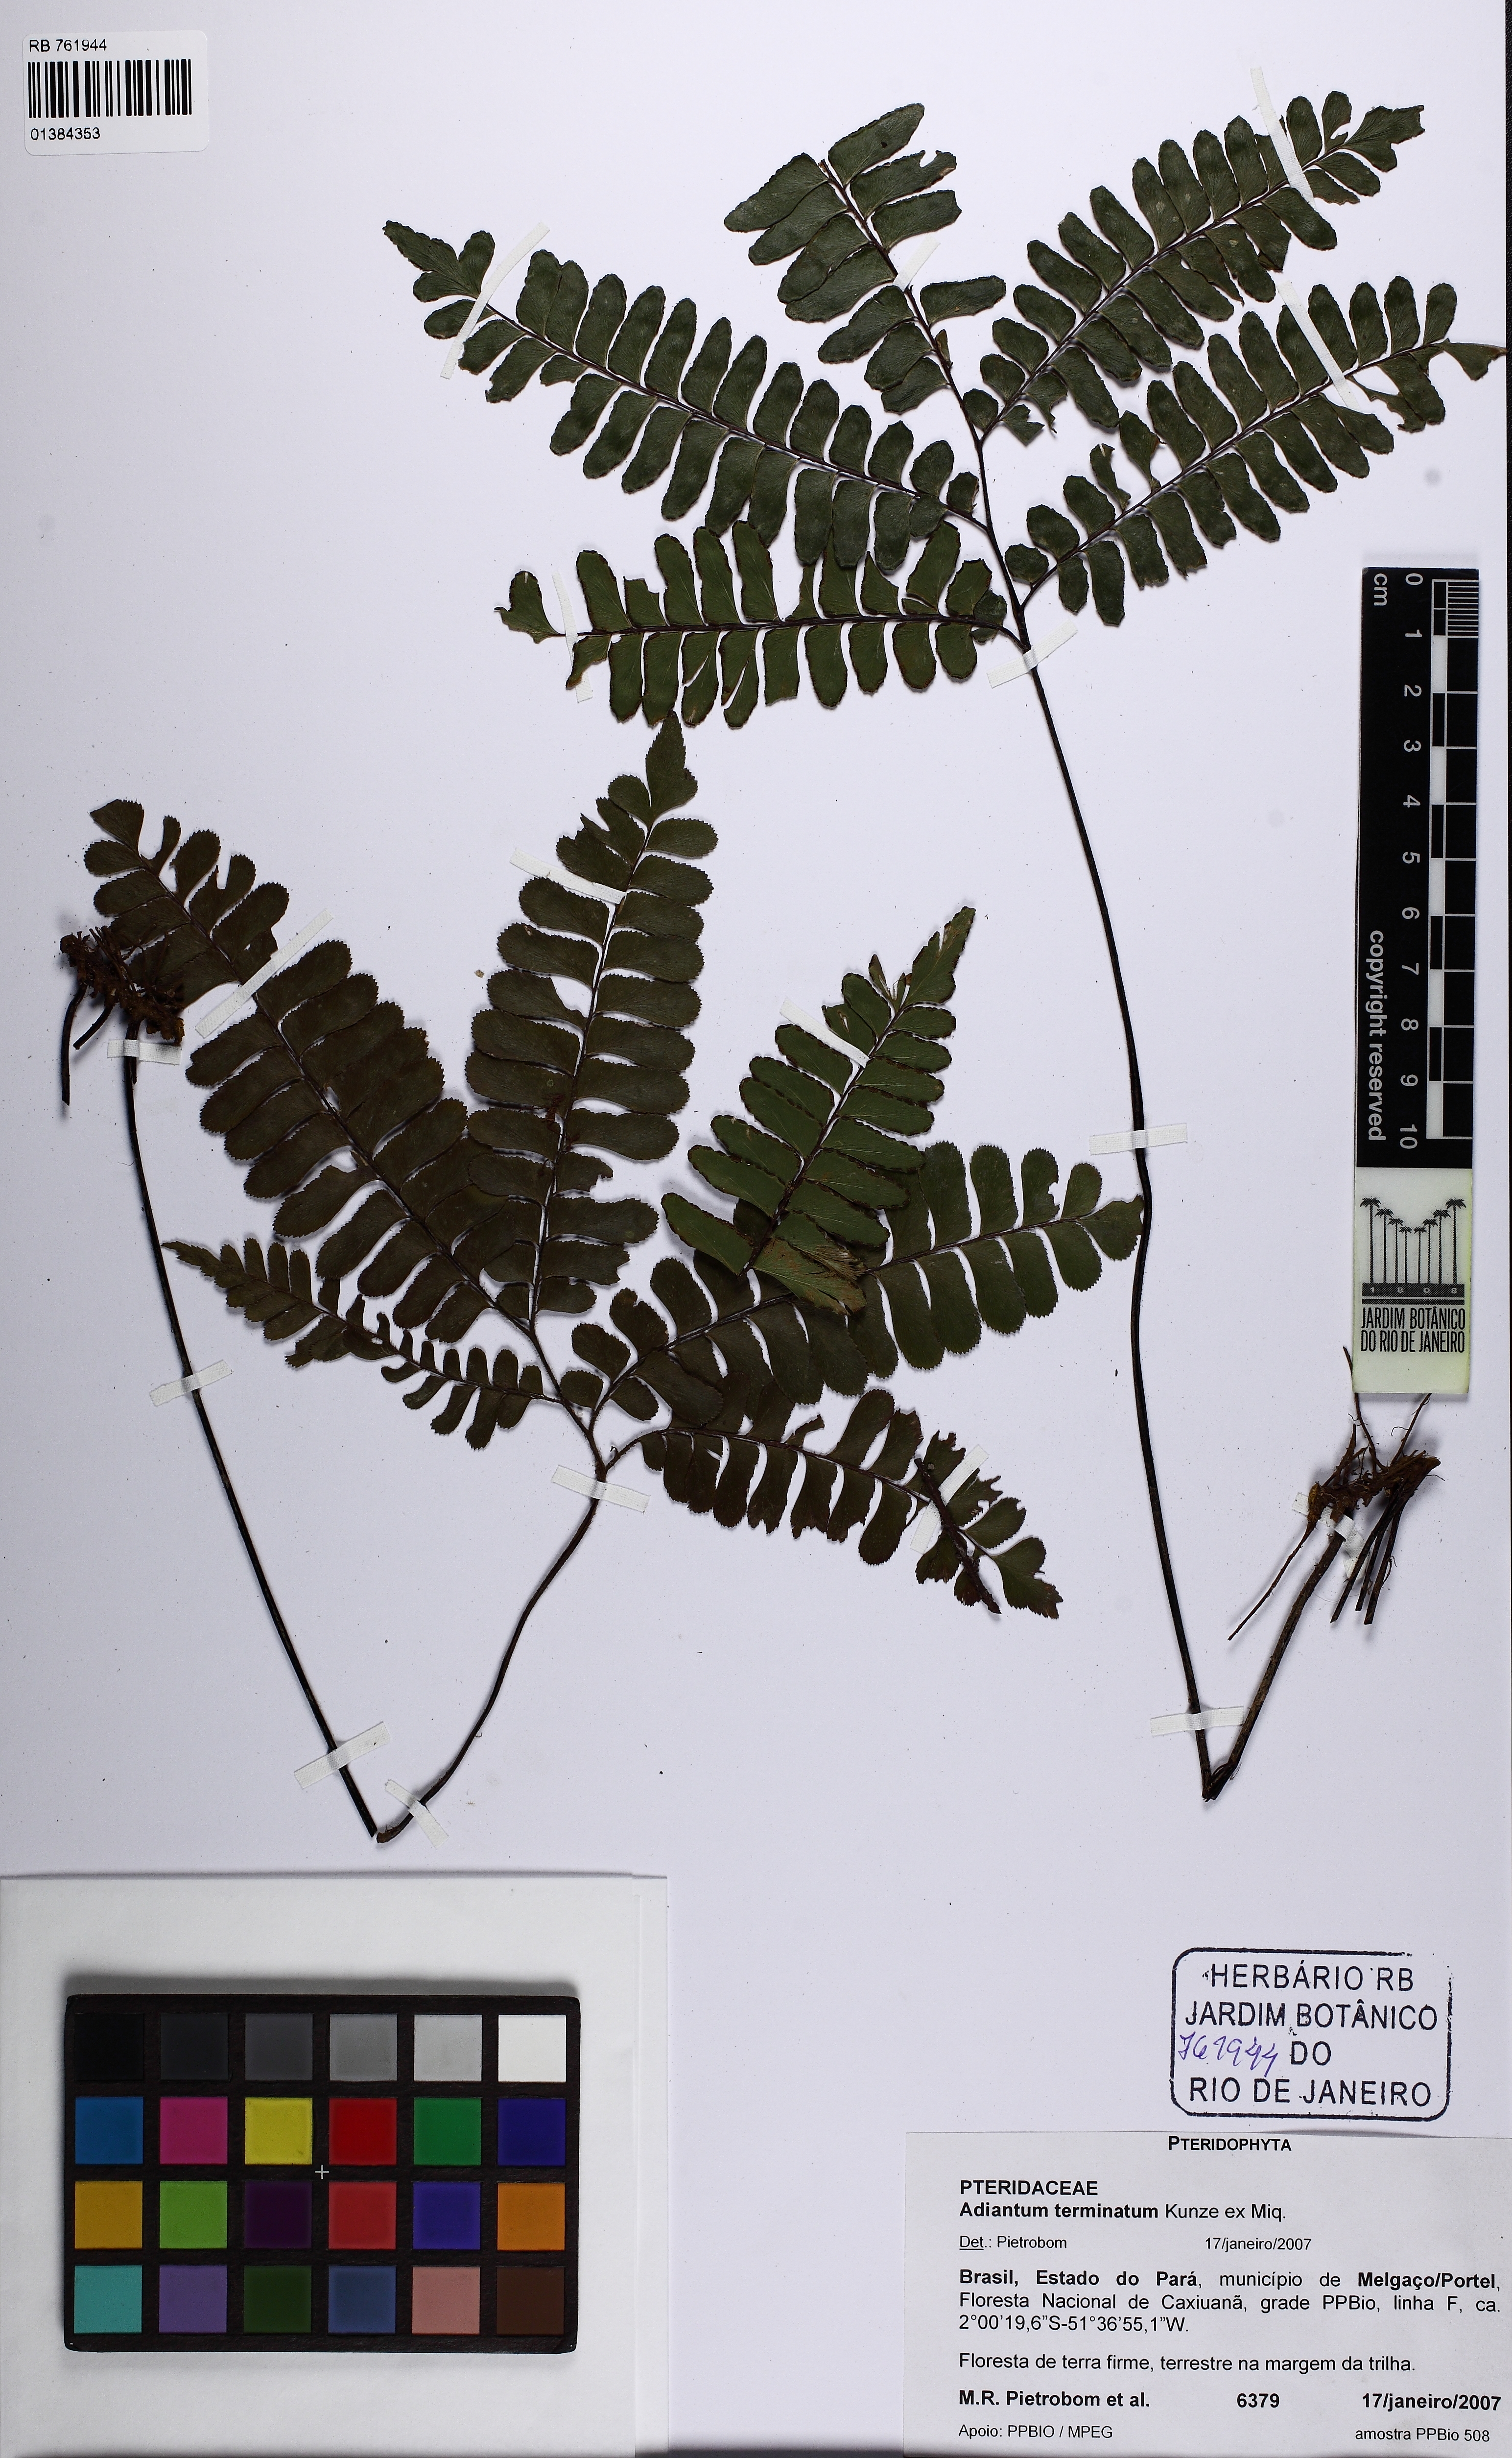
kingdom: Plantae
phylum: Tracheophyta
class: Polypodiopsida
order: Polypodiales
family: Pteridaceae
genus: Adiantum
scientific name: Adiantum terminatum
